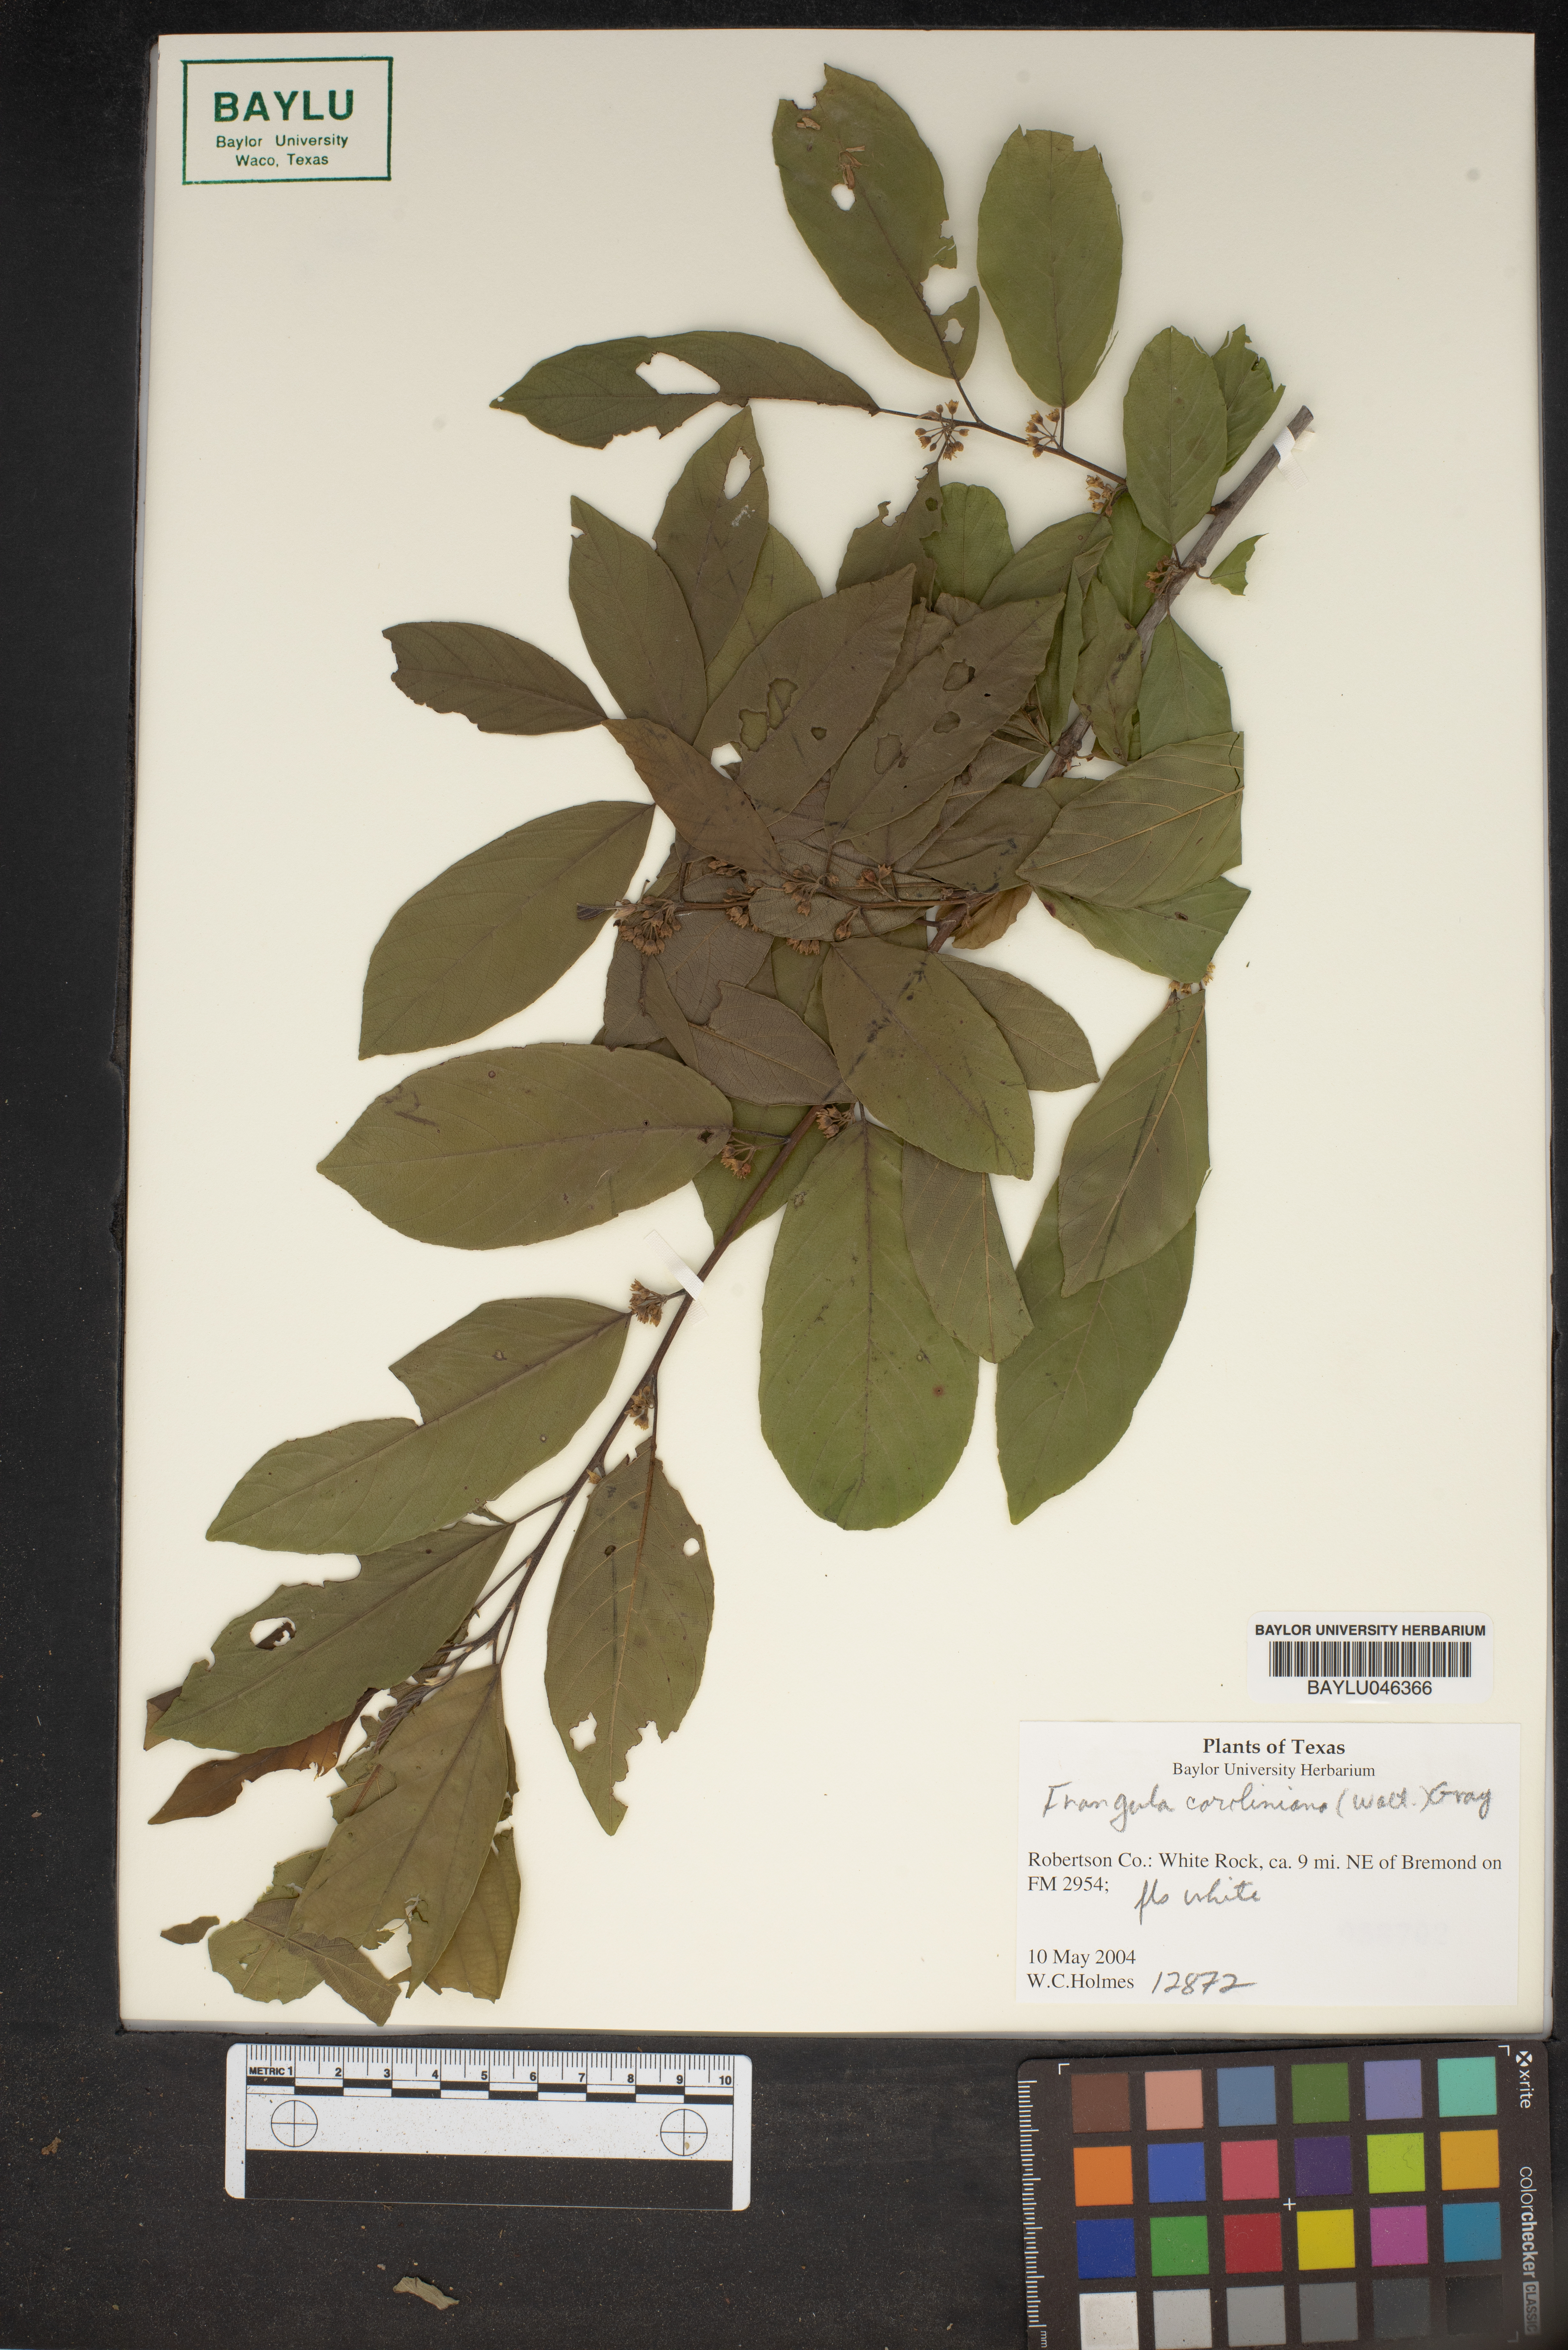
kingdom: Plantae
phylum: Tracheophyta
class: Magnoliopsida
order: Rosales
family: Rhamnaceae
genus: Frangula
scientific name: Frangula caroliniana
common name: Carolina buckthorn
